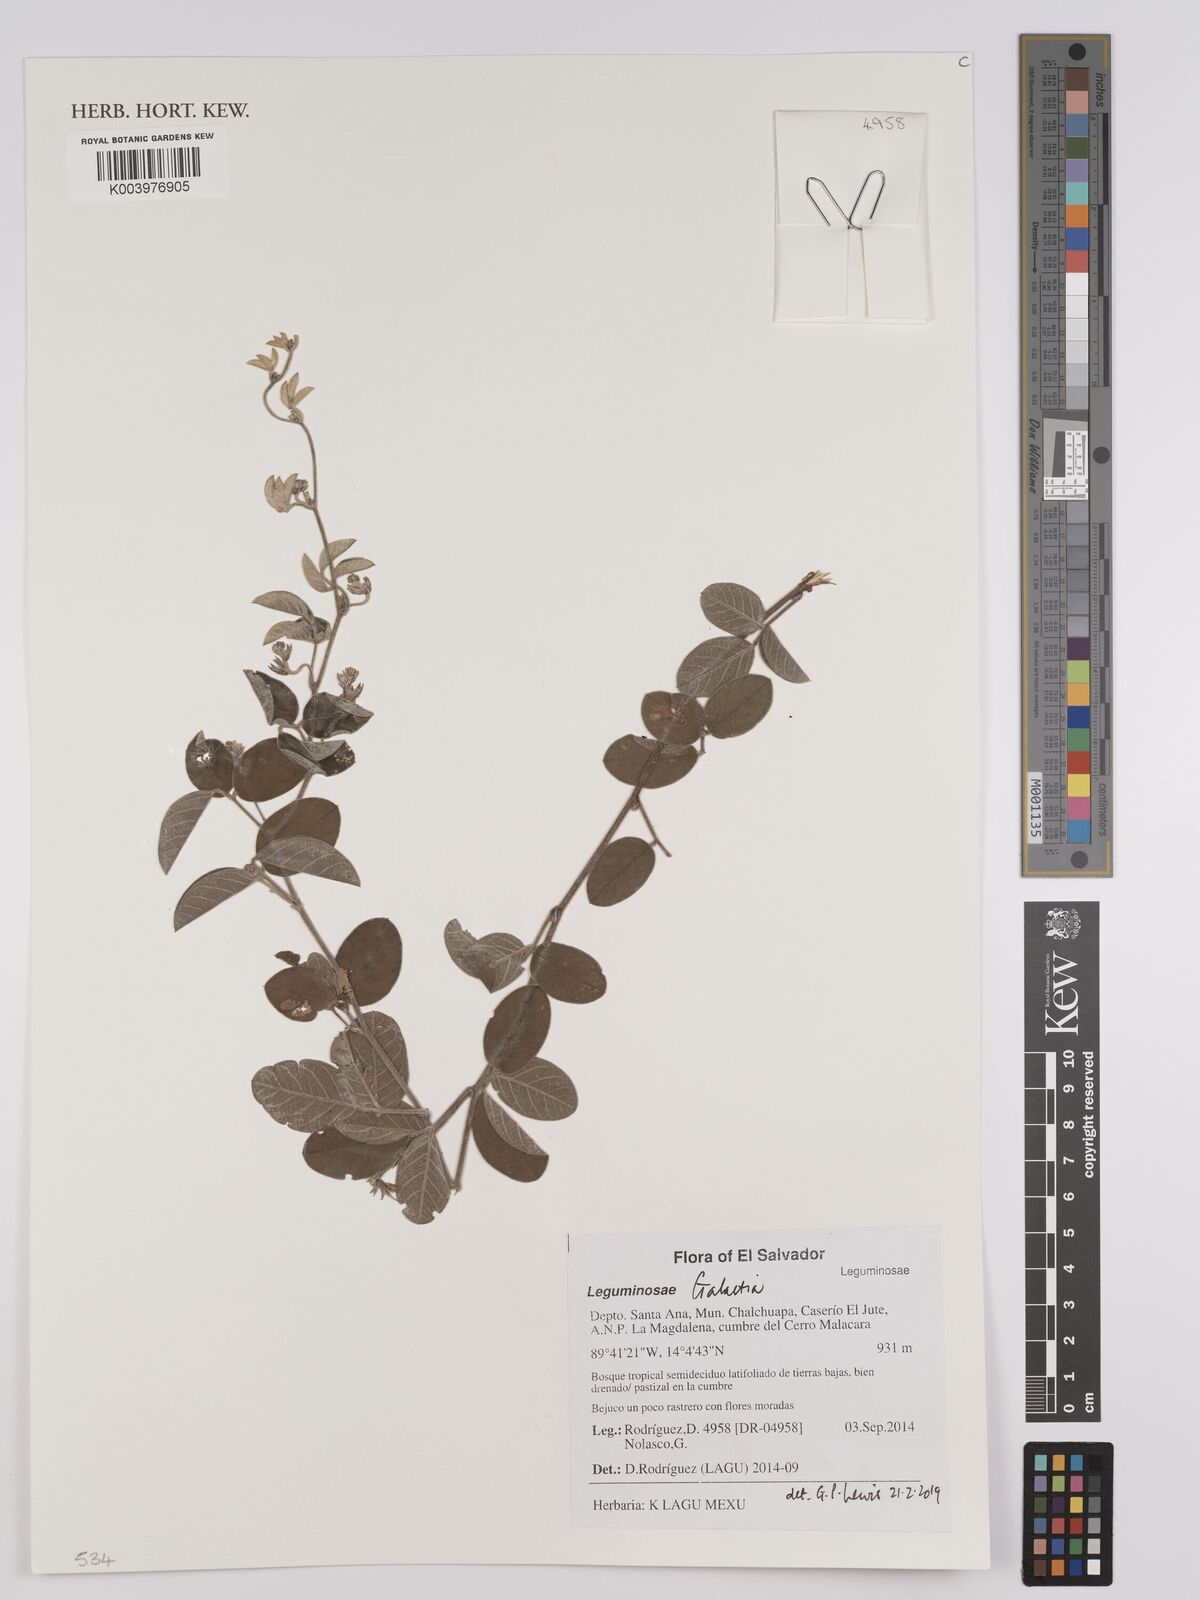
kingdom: Plantae
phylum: Tracheophyta
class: Magnoliopsida
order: Fabales
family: Fabaceae
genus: Galactia
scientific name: Galactia
